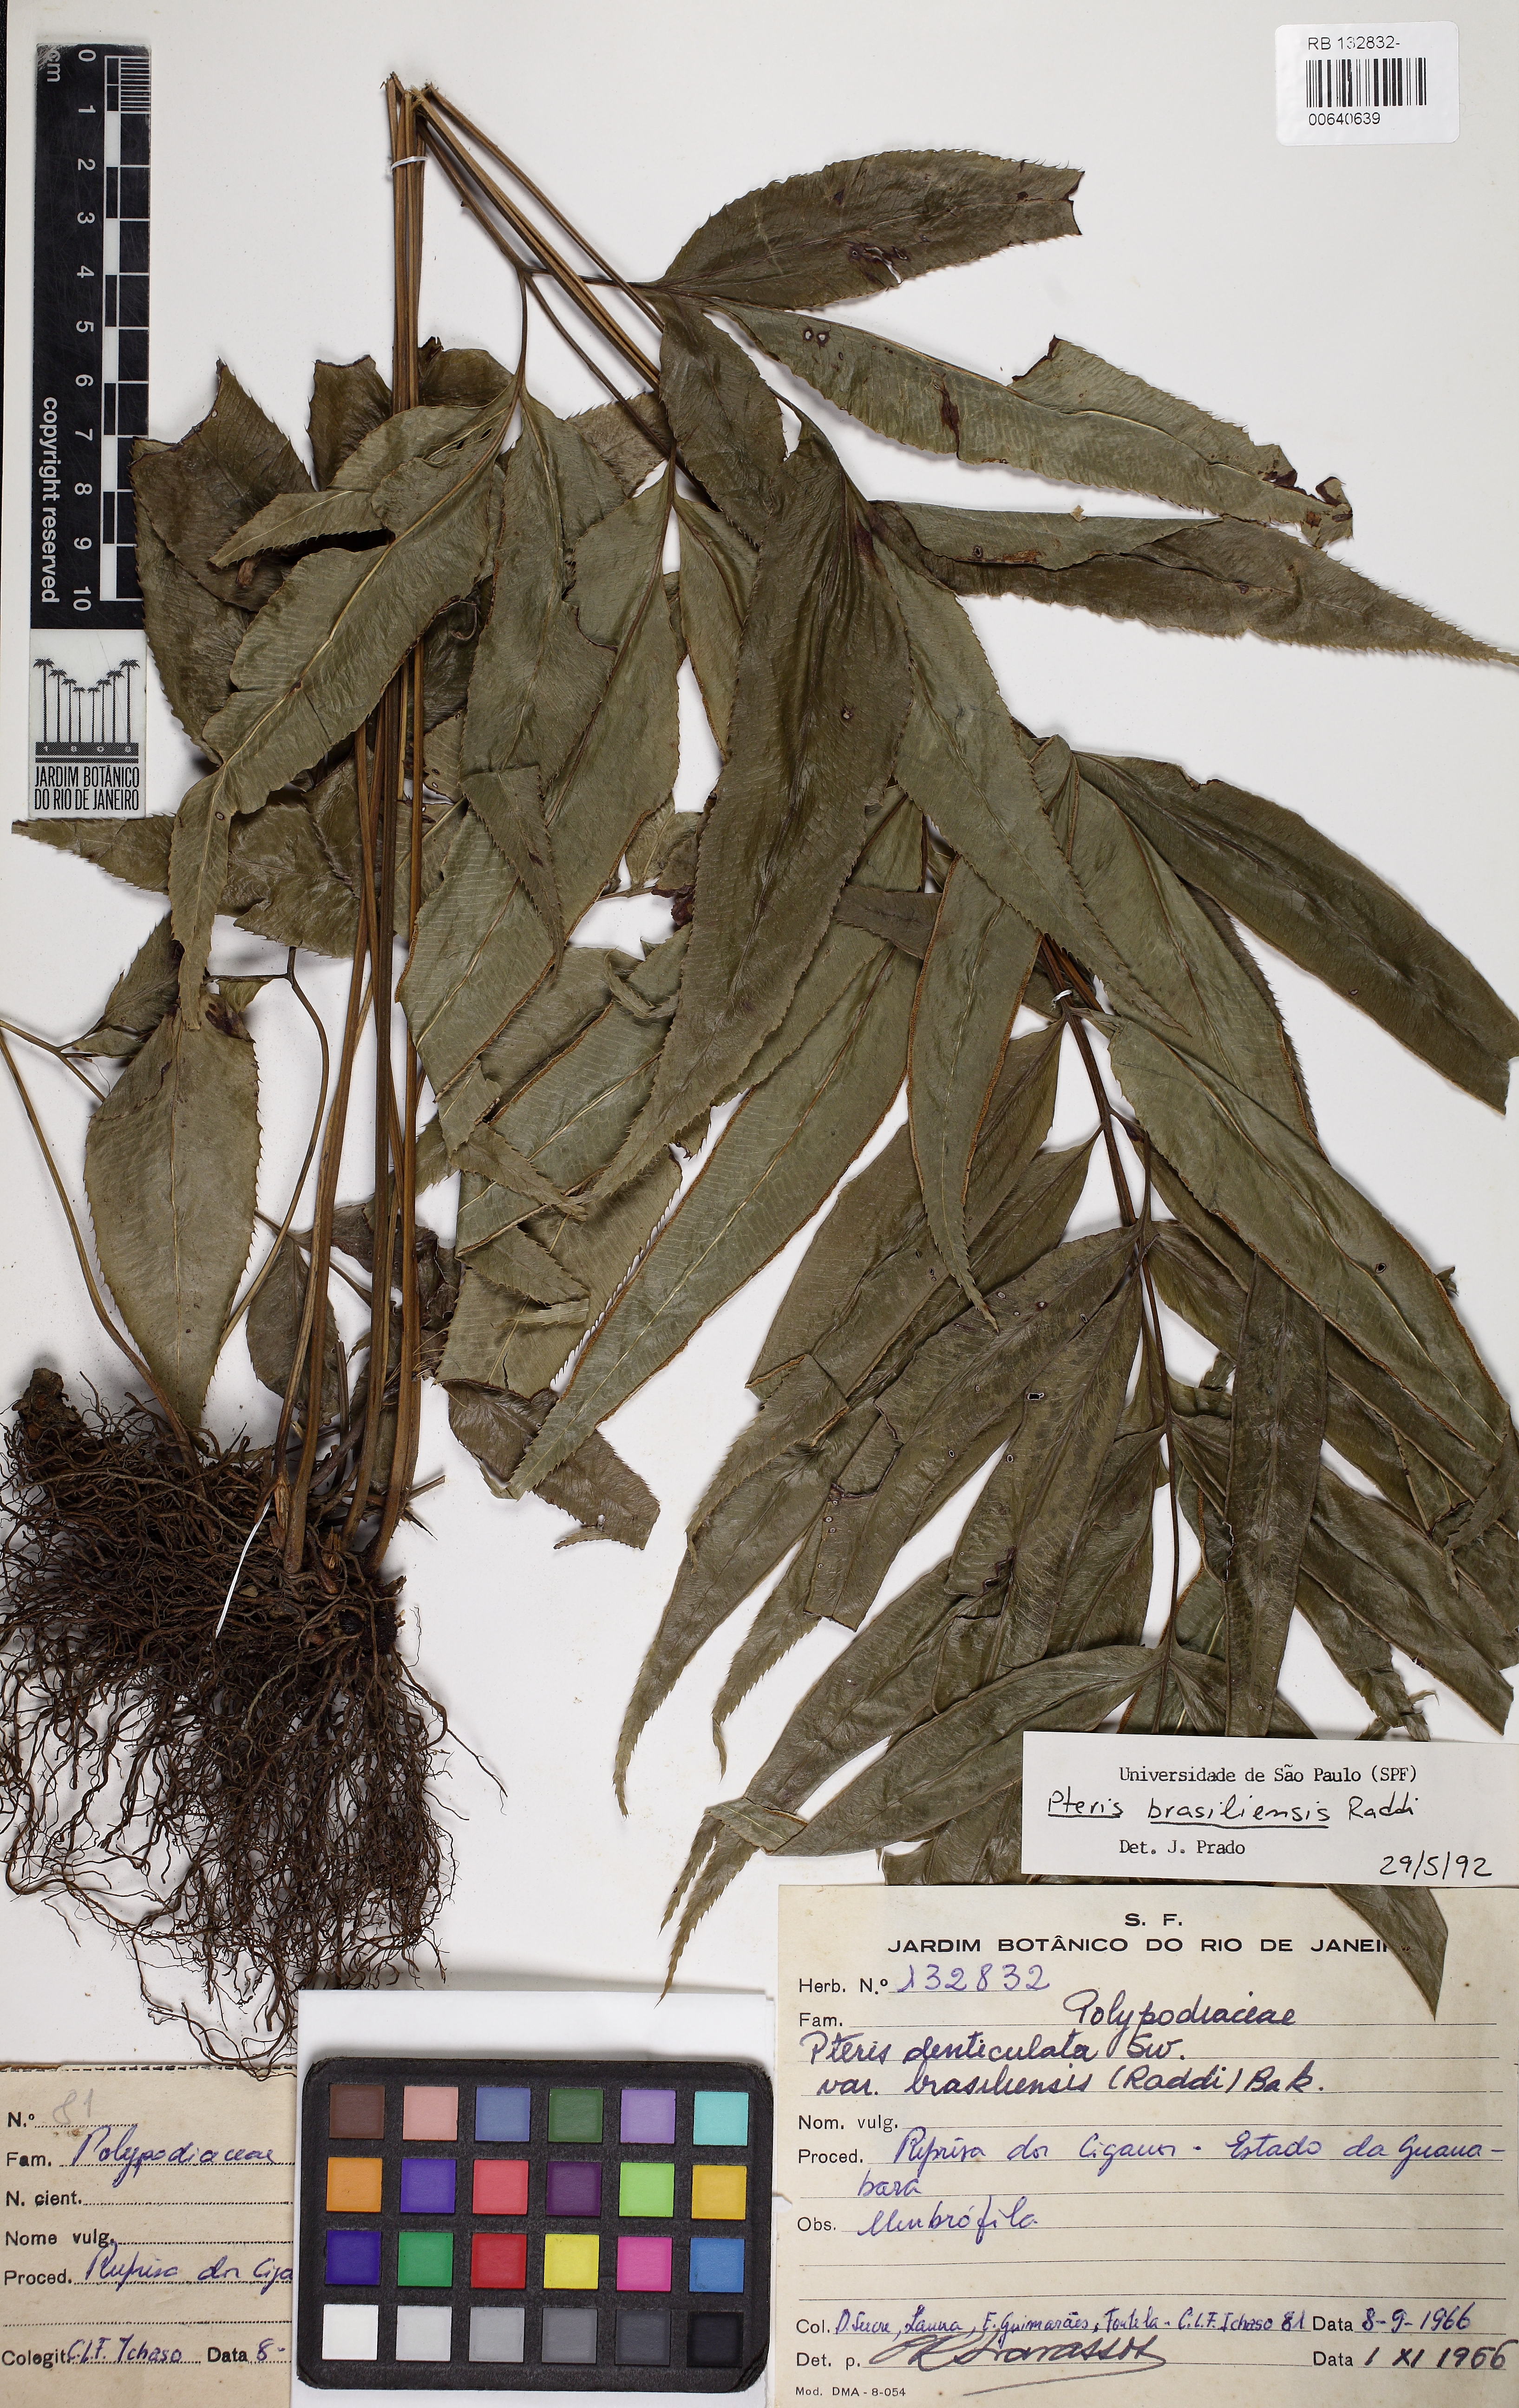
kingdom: Plantae
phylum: Tracheophyta
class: Polypodiopsida
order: Polypodiales
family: Pteridaceae
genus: Pteris
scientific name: Pteris brasiliensis
